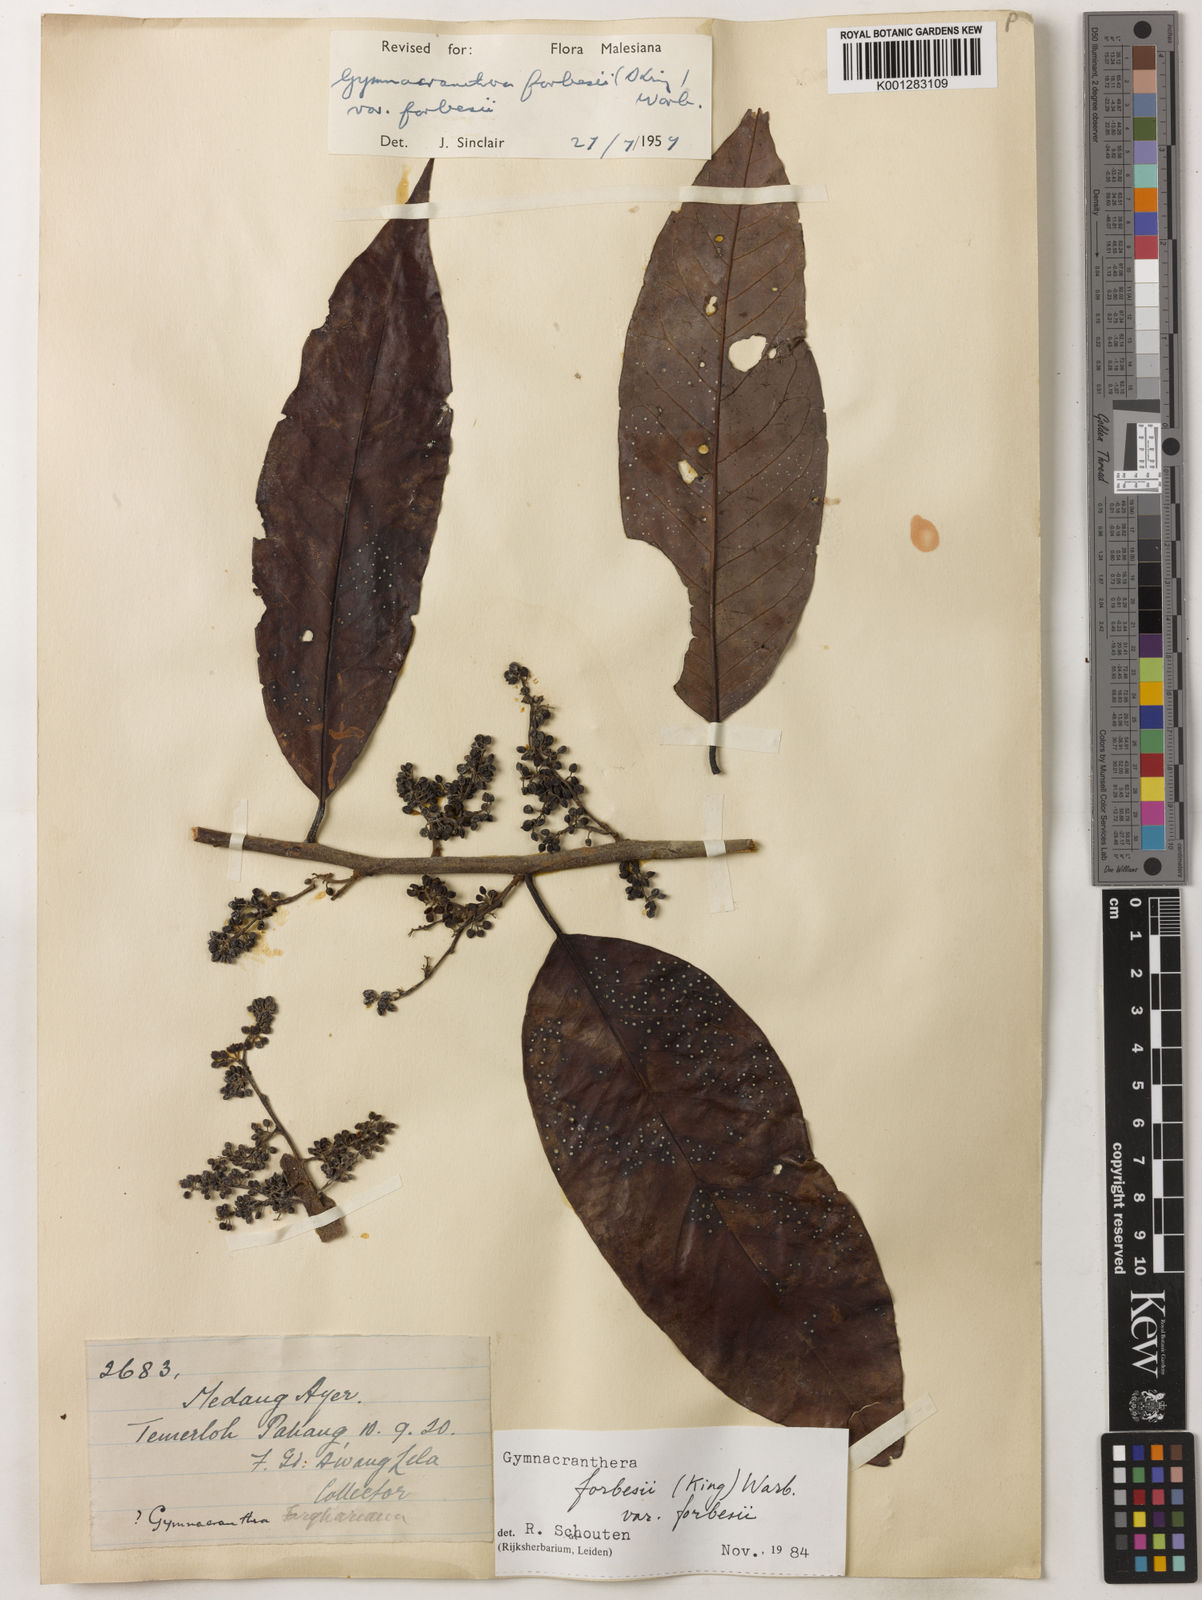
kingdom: Plantae
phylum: Tracheophyta
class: Magnoliopsida
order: Magnoliales
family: Myristicaceae
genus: Gymnacranthera
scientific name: Gymnacranthera forbesii
